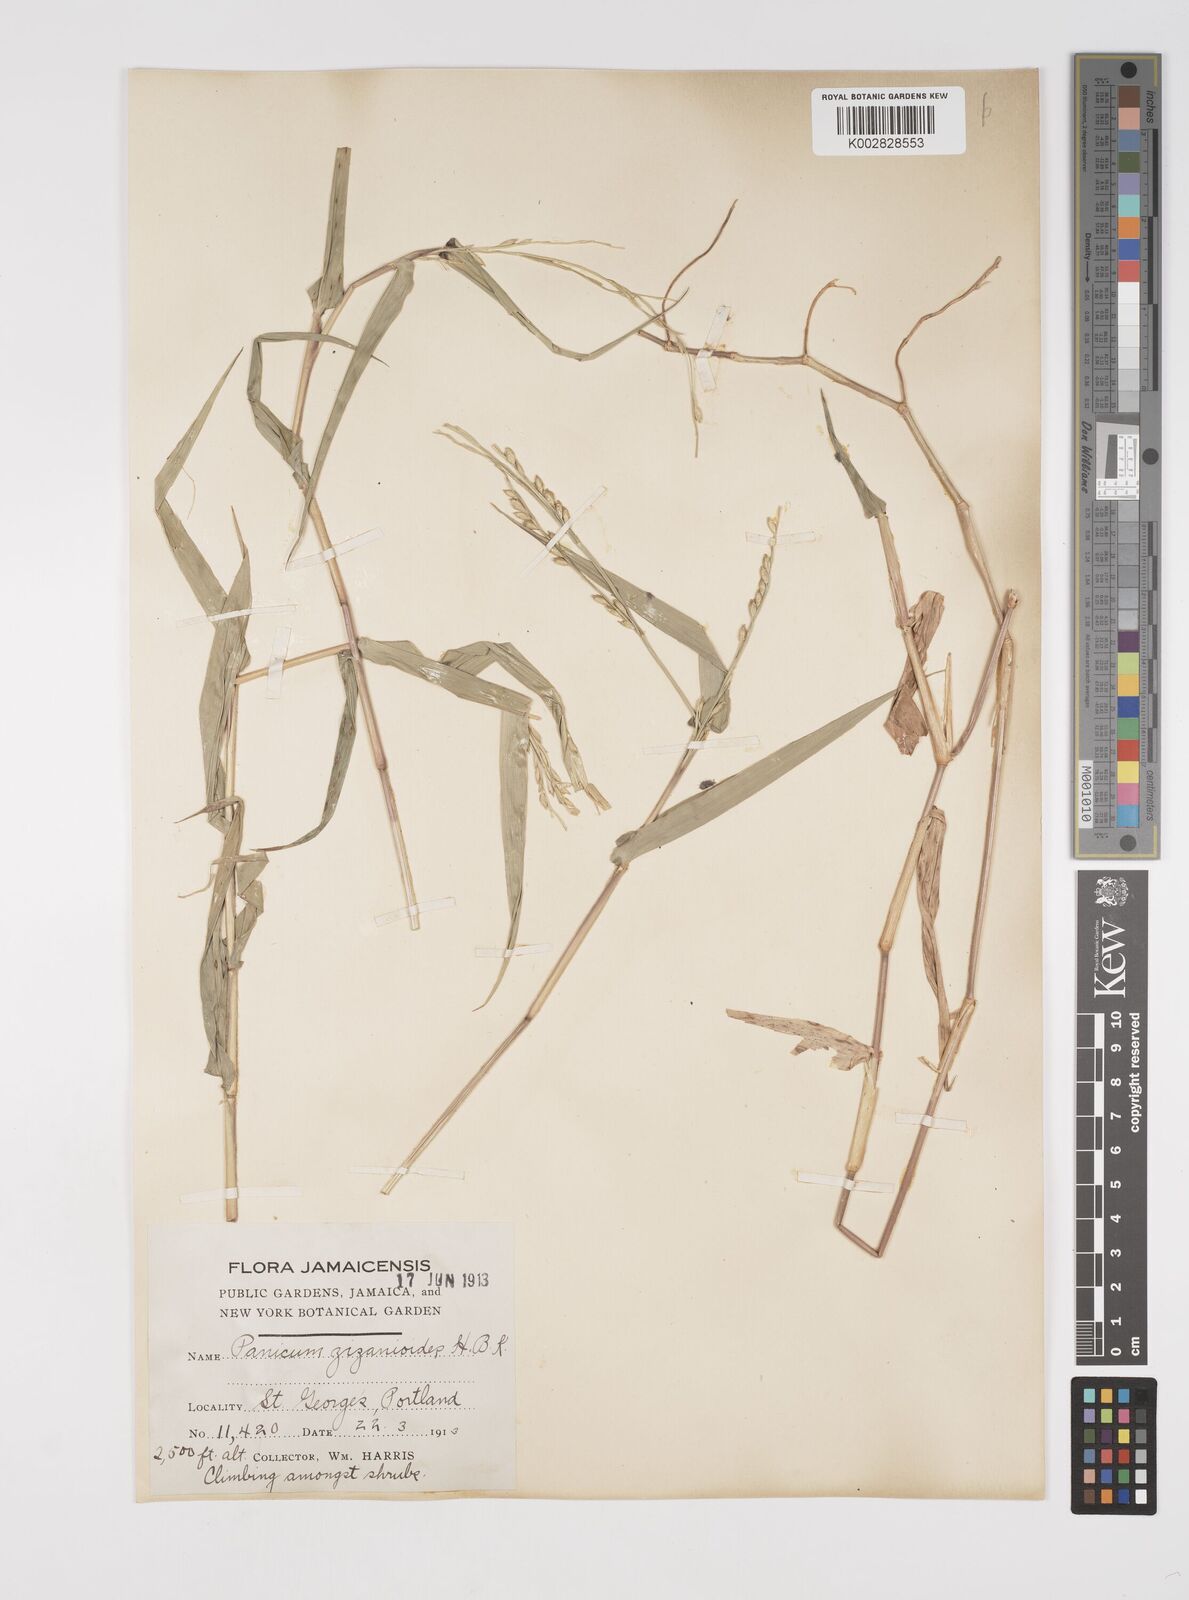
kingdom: Plantae
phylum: Tracheophyta
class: Liliopsida
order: Poales
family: Poaceae
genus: Acroceras
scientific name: Acroceras zizanioides
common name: Oat grass
